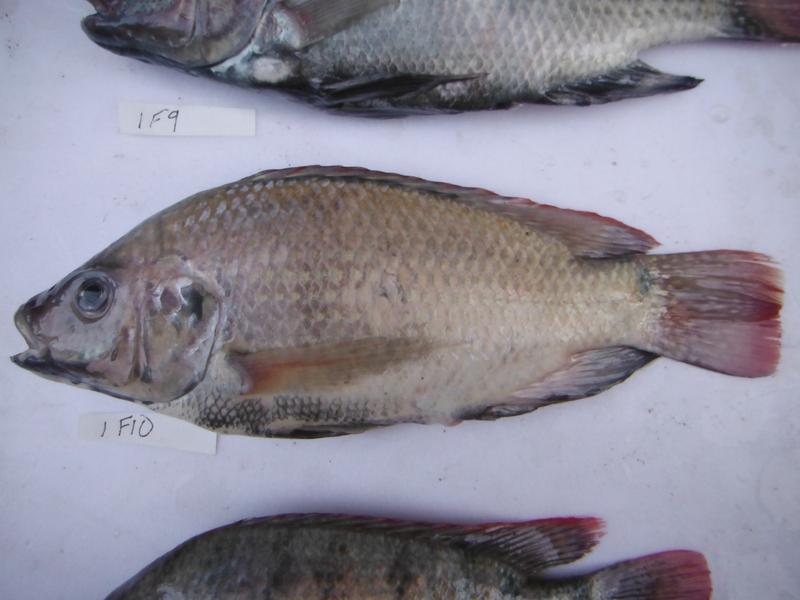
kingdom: Animalia
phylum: Chordata
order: Perciformes
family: Cichlidae
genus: Oreochromis
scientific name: Oreochromis rukwaensis
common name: Lake rukwa tilapia
